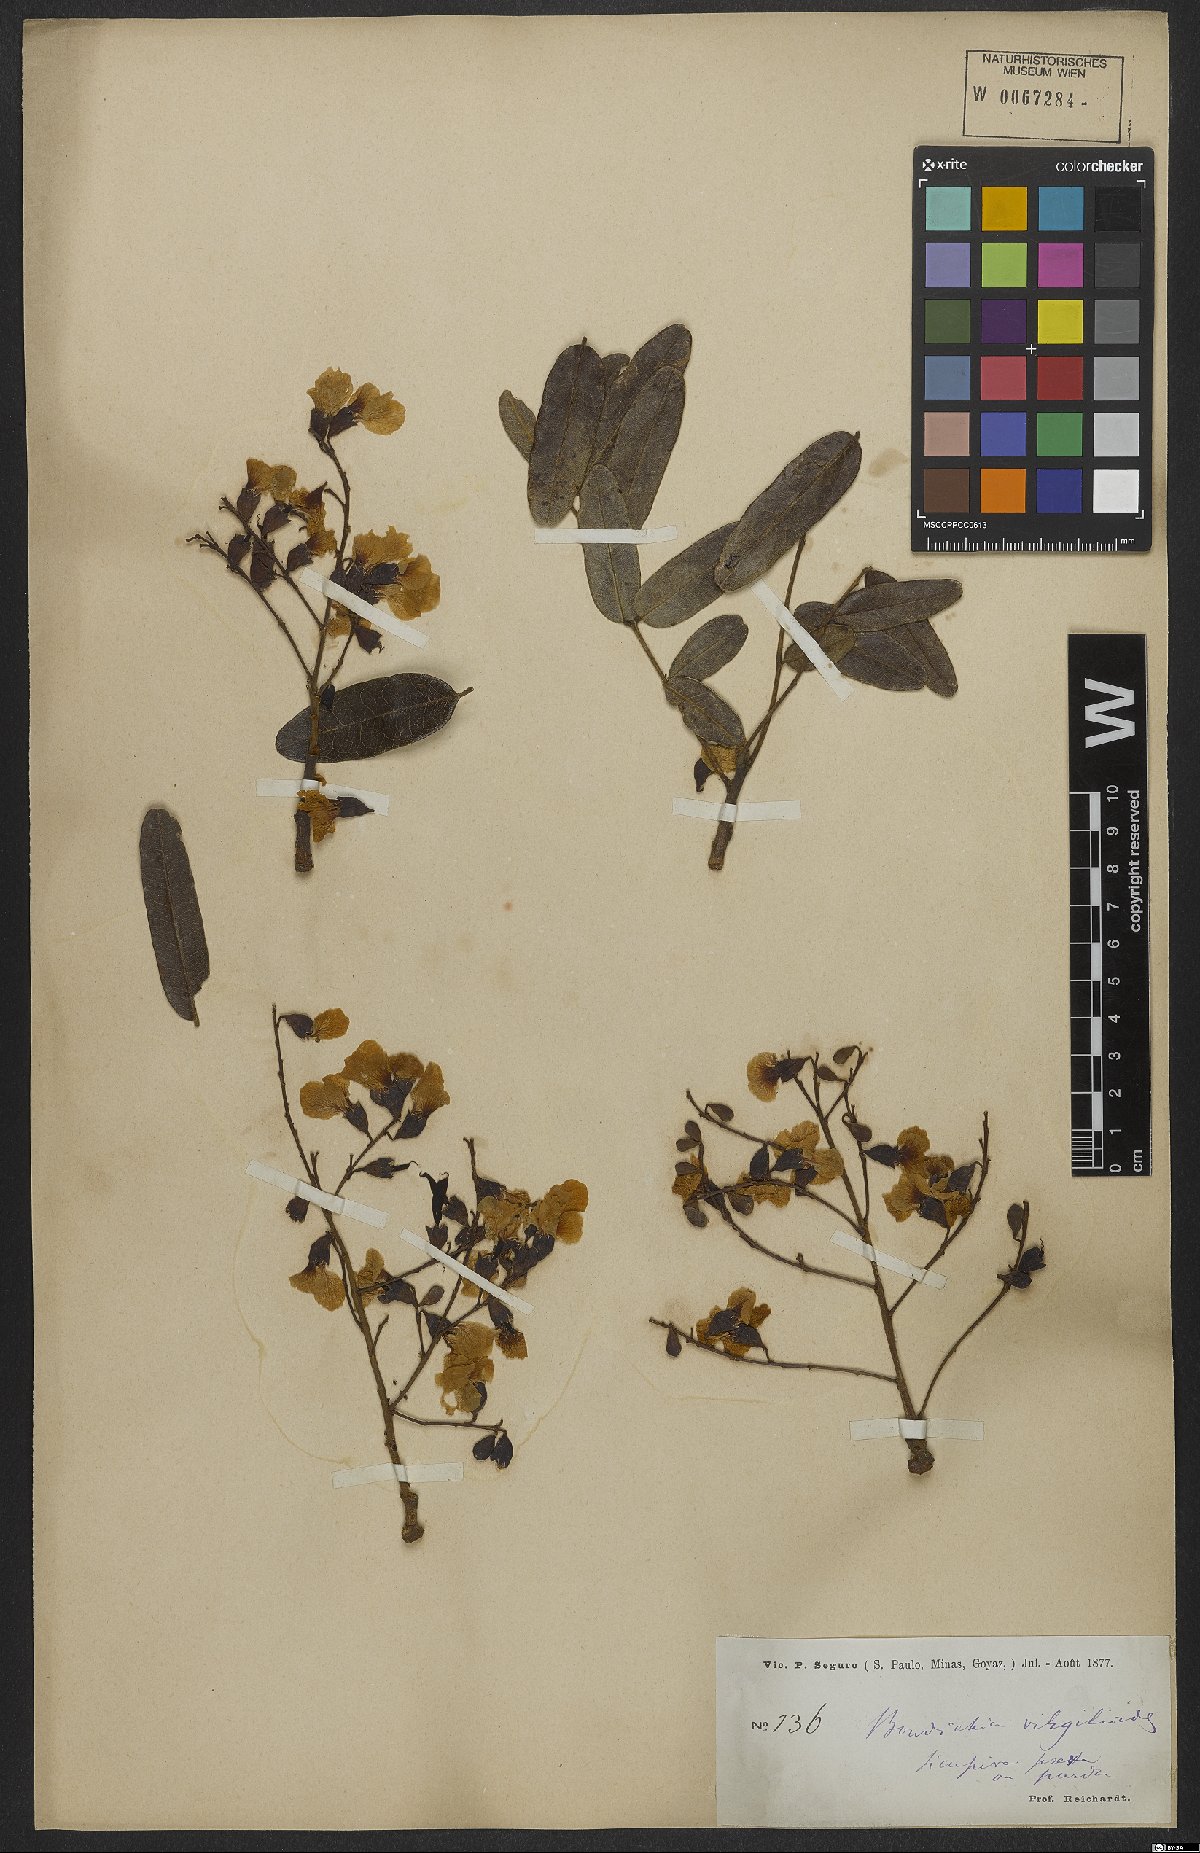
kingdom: Plantae
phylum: Tracheophyta
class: Magnoliopsida
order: Fabales
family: Fabaceae
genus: Bowdichia
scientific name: Bowdichia virgilioides
